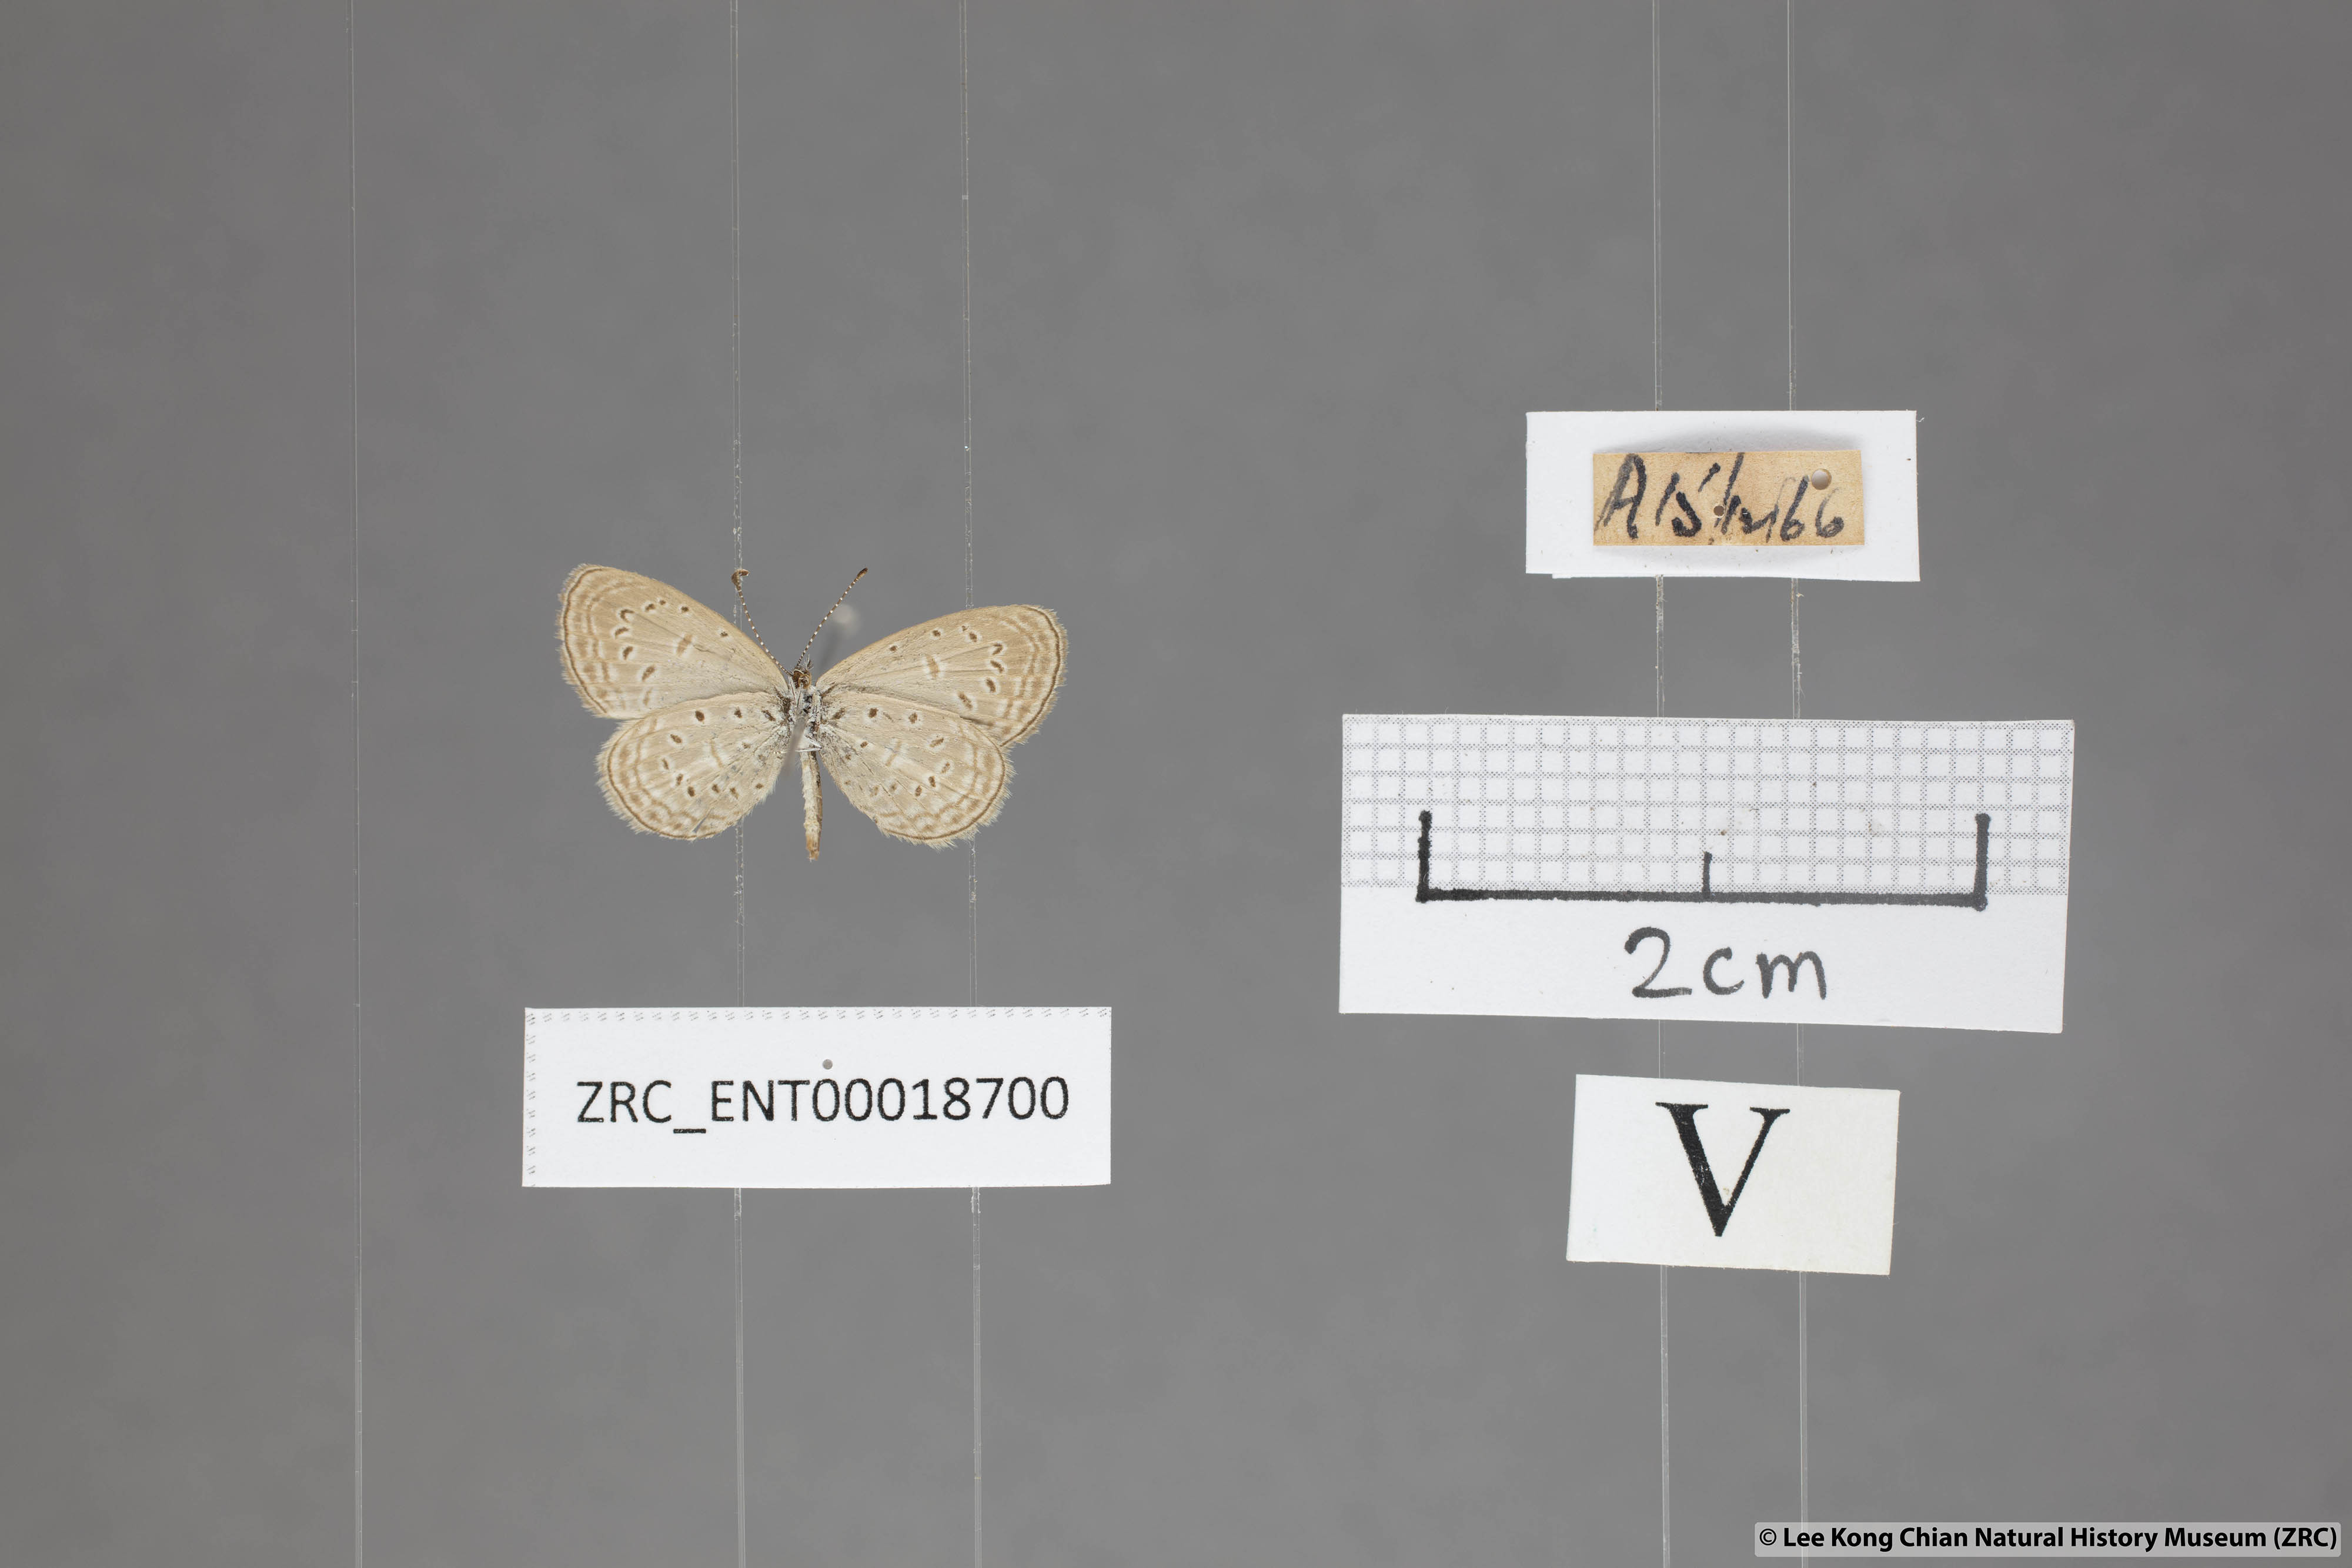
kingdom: Animalia
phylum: Arthropoda
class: Insecta
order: Lepidoptera
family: Lycaenidae
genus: Zizula
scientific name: Zizula hylax
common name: Gaika blue
